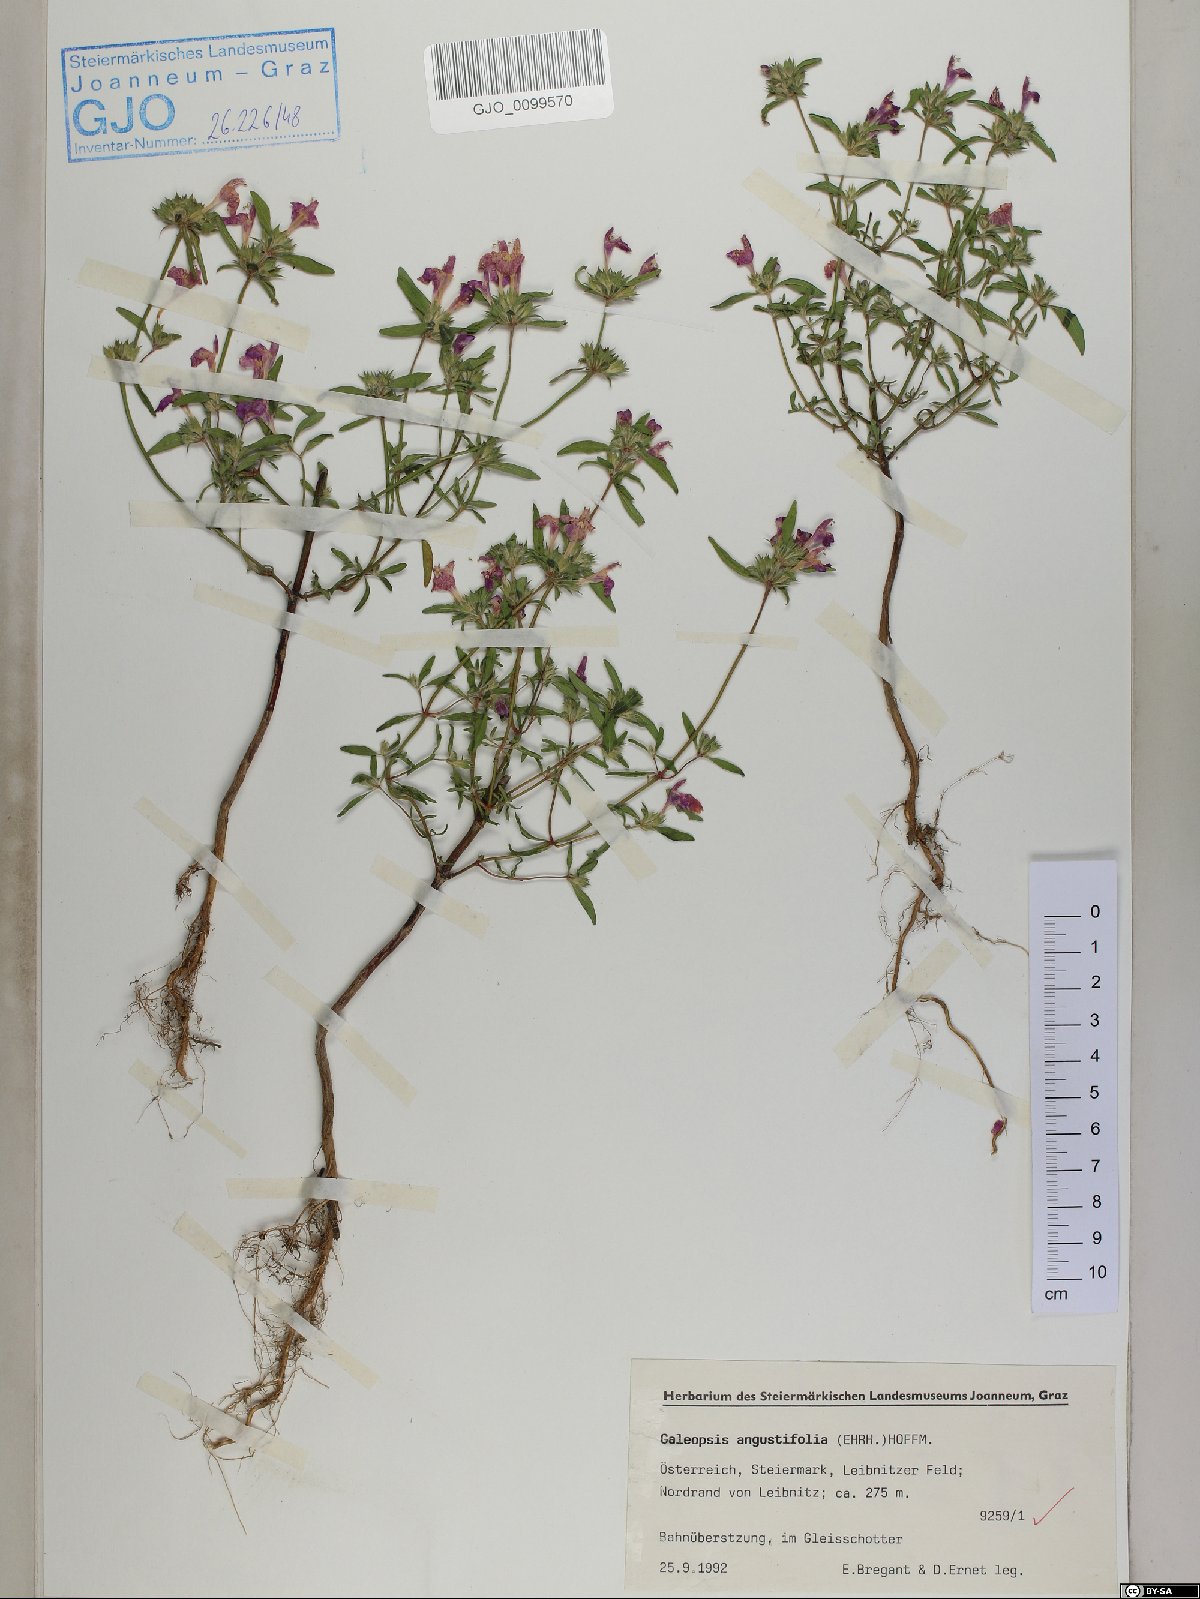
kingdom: Plantae
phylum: Tracheophyta
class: Magnoliopsida
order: Lamiales
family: Lamiaceae
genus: Galeopsis
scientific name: Galeopsis angustifolia
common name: Red hemp-nettle
